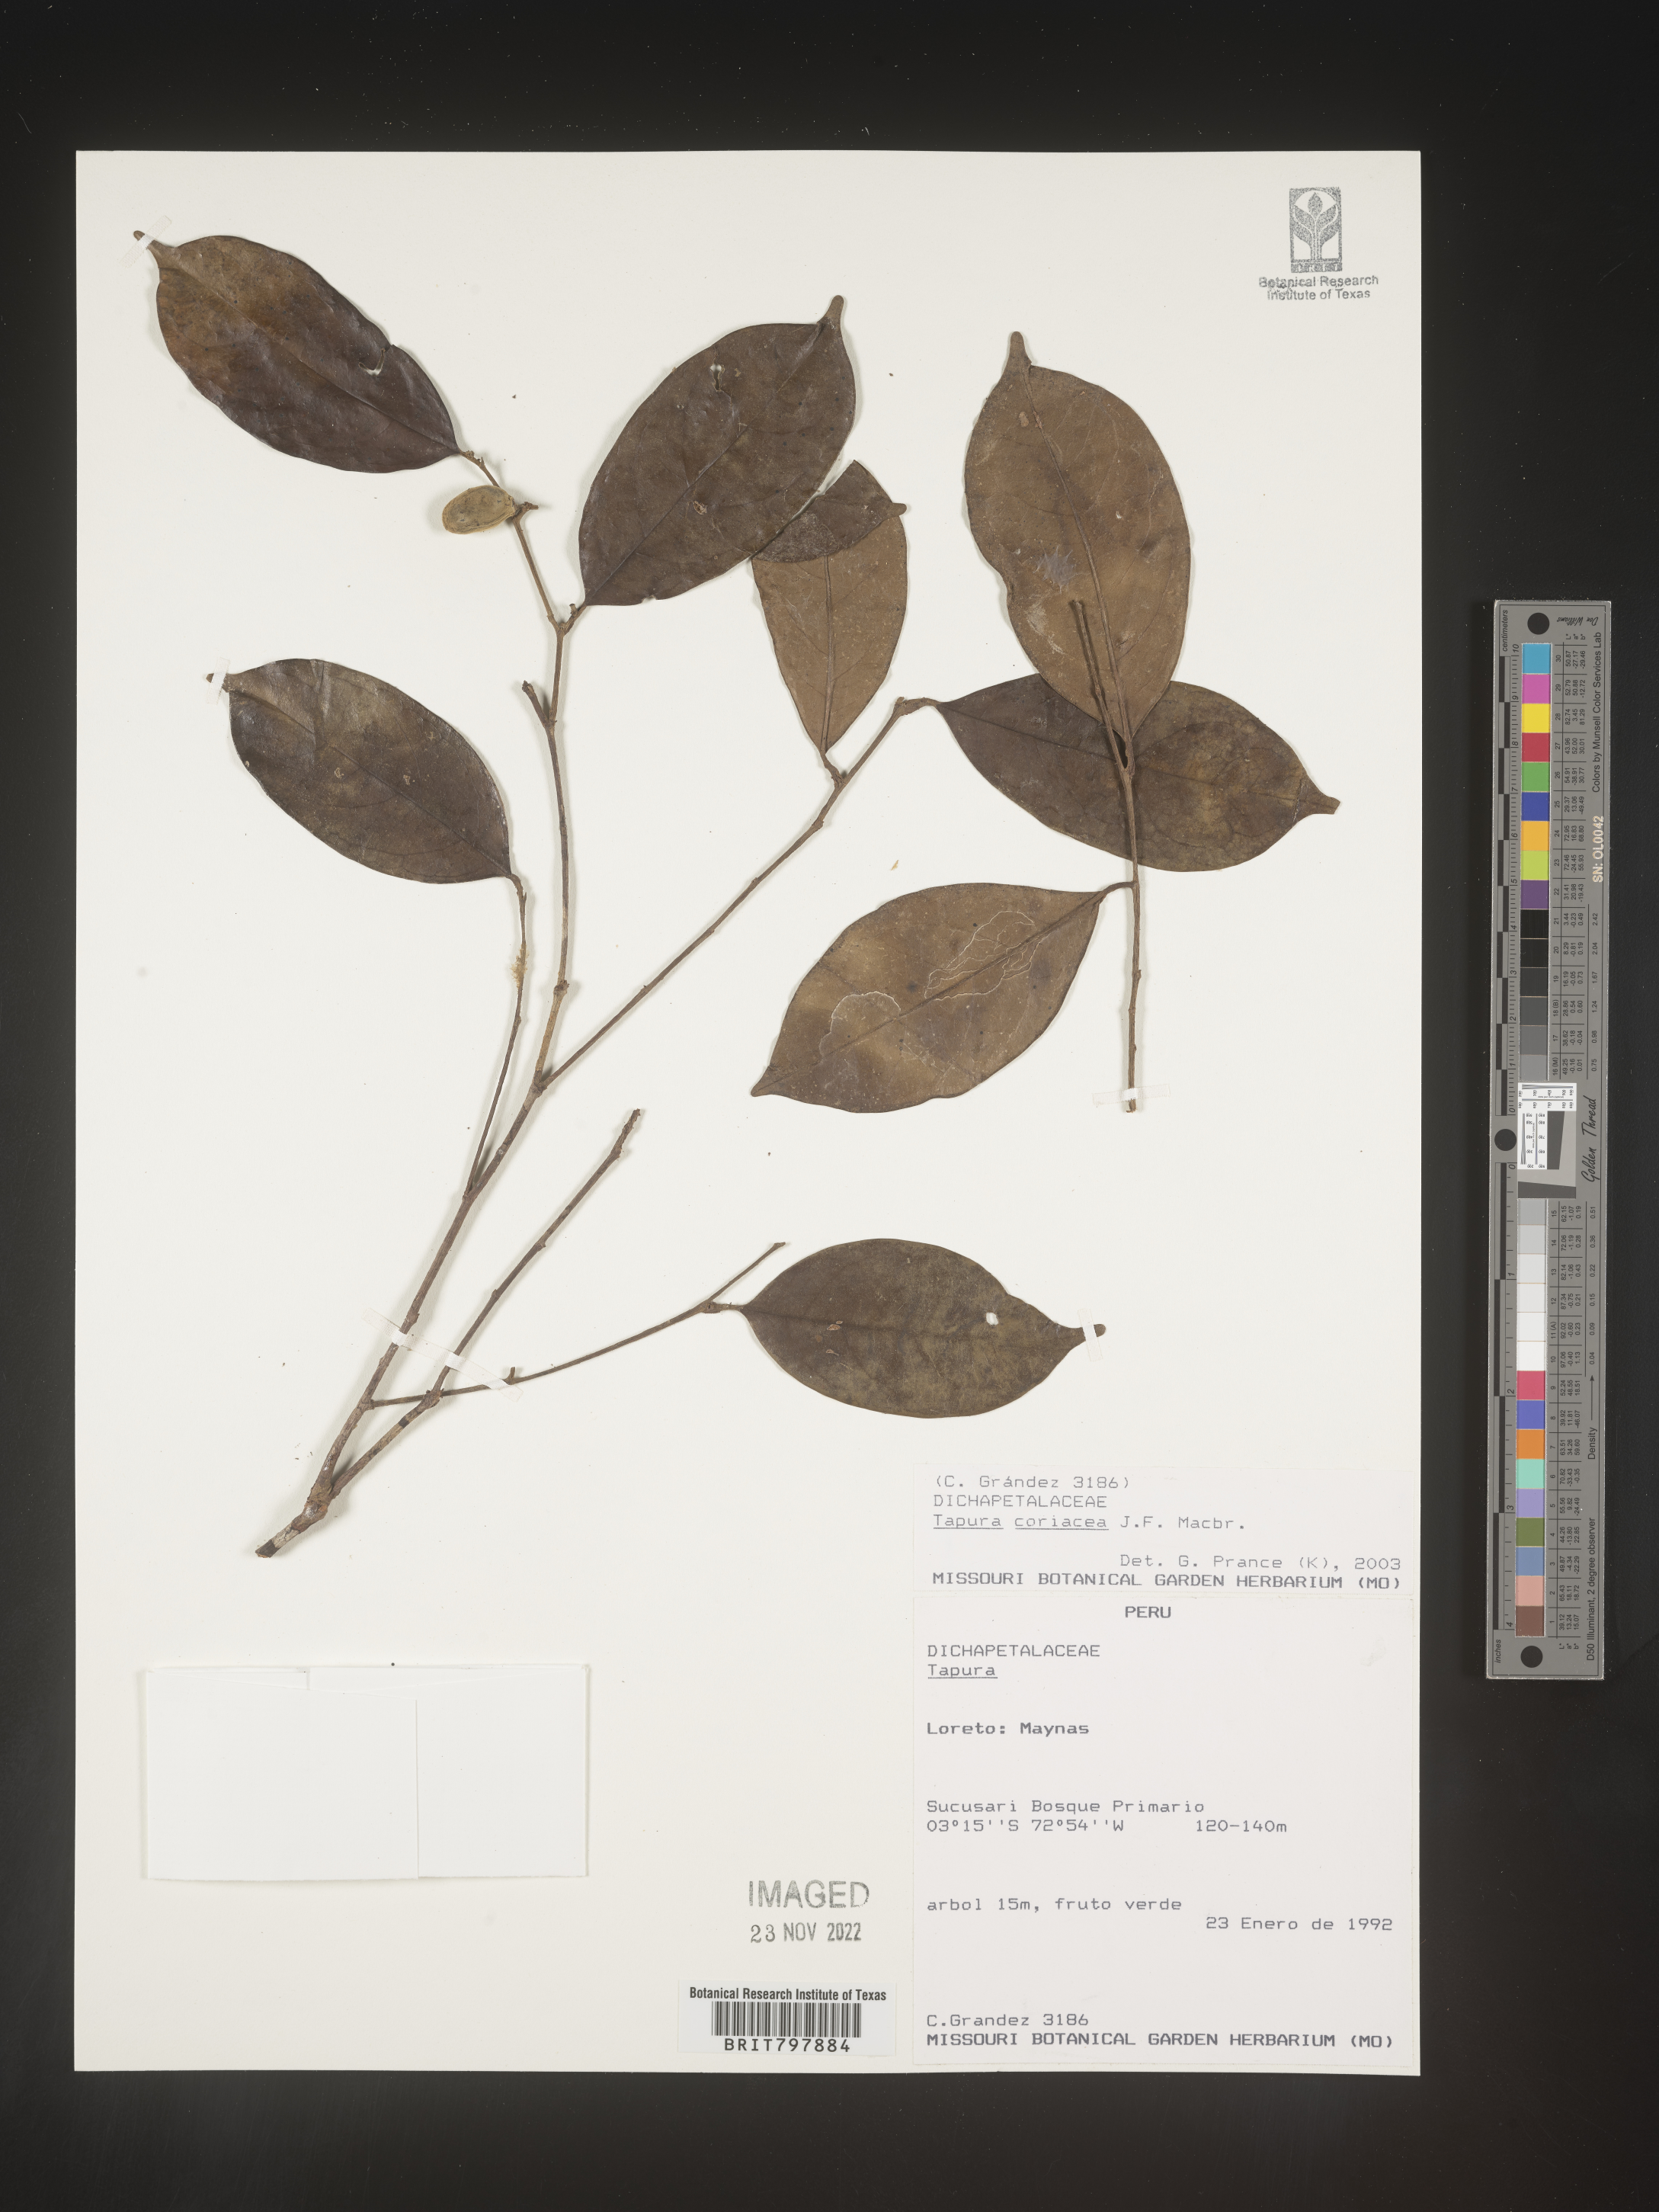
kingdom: Plantae
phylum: Tracheophyta
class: Magnoliopsida
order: Malpighiales
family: Dichapetalaceae
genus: Tapura
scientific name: Tapura
